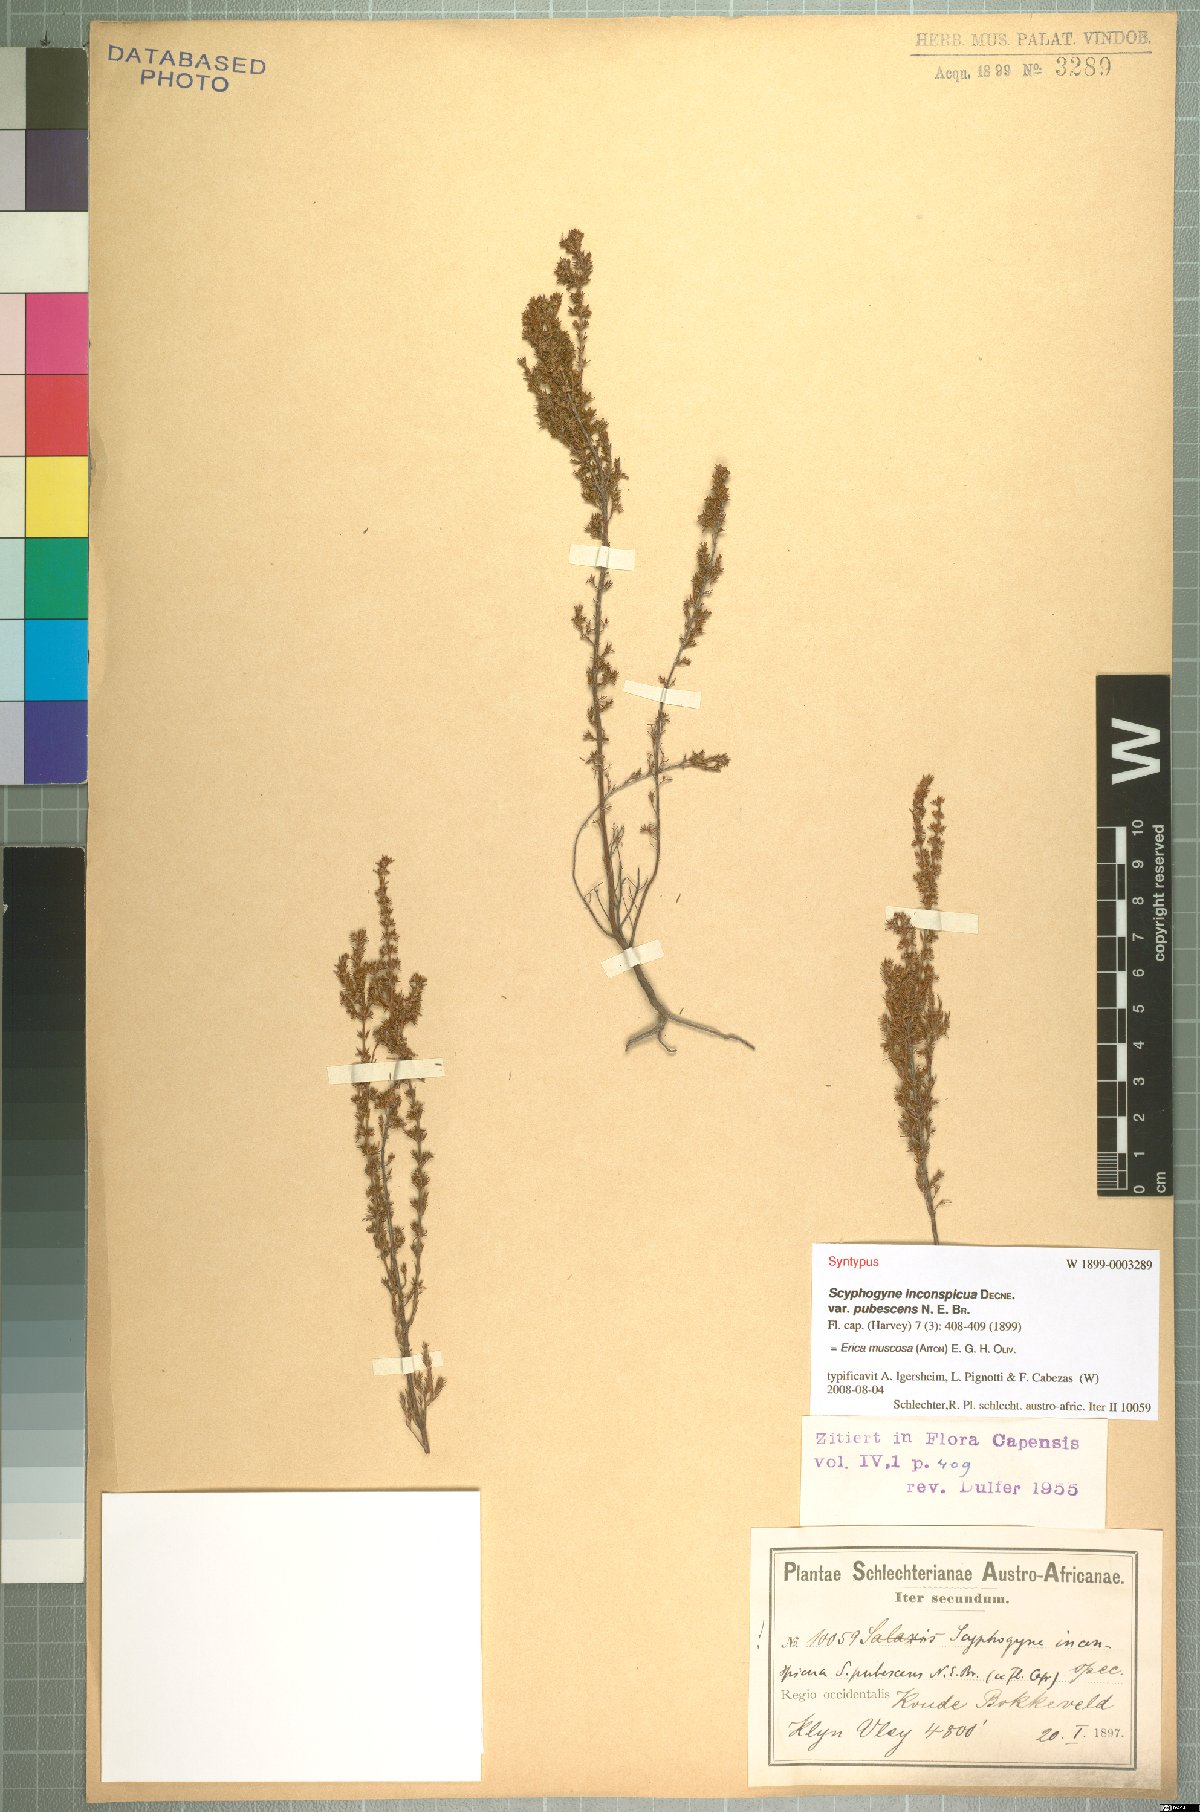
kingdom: Plantae
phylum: Tracheophyta
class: Magnoliopsida
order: Ericales
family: Ericaceae
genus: Erica
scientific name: Erica muscosa
